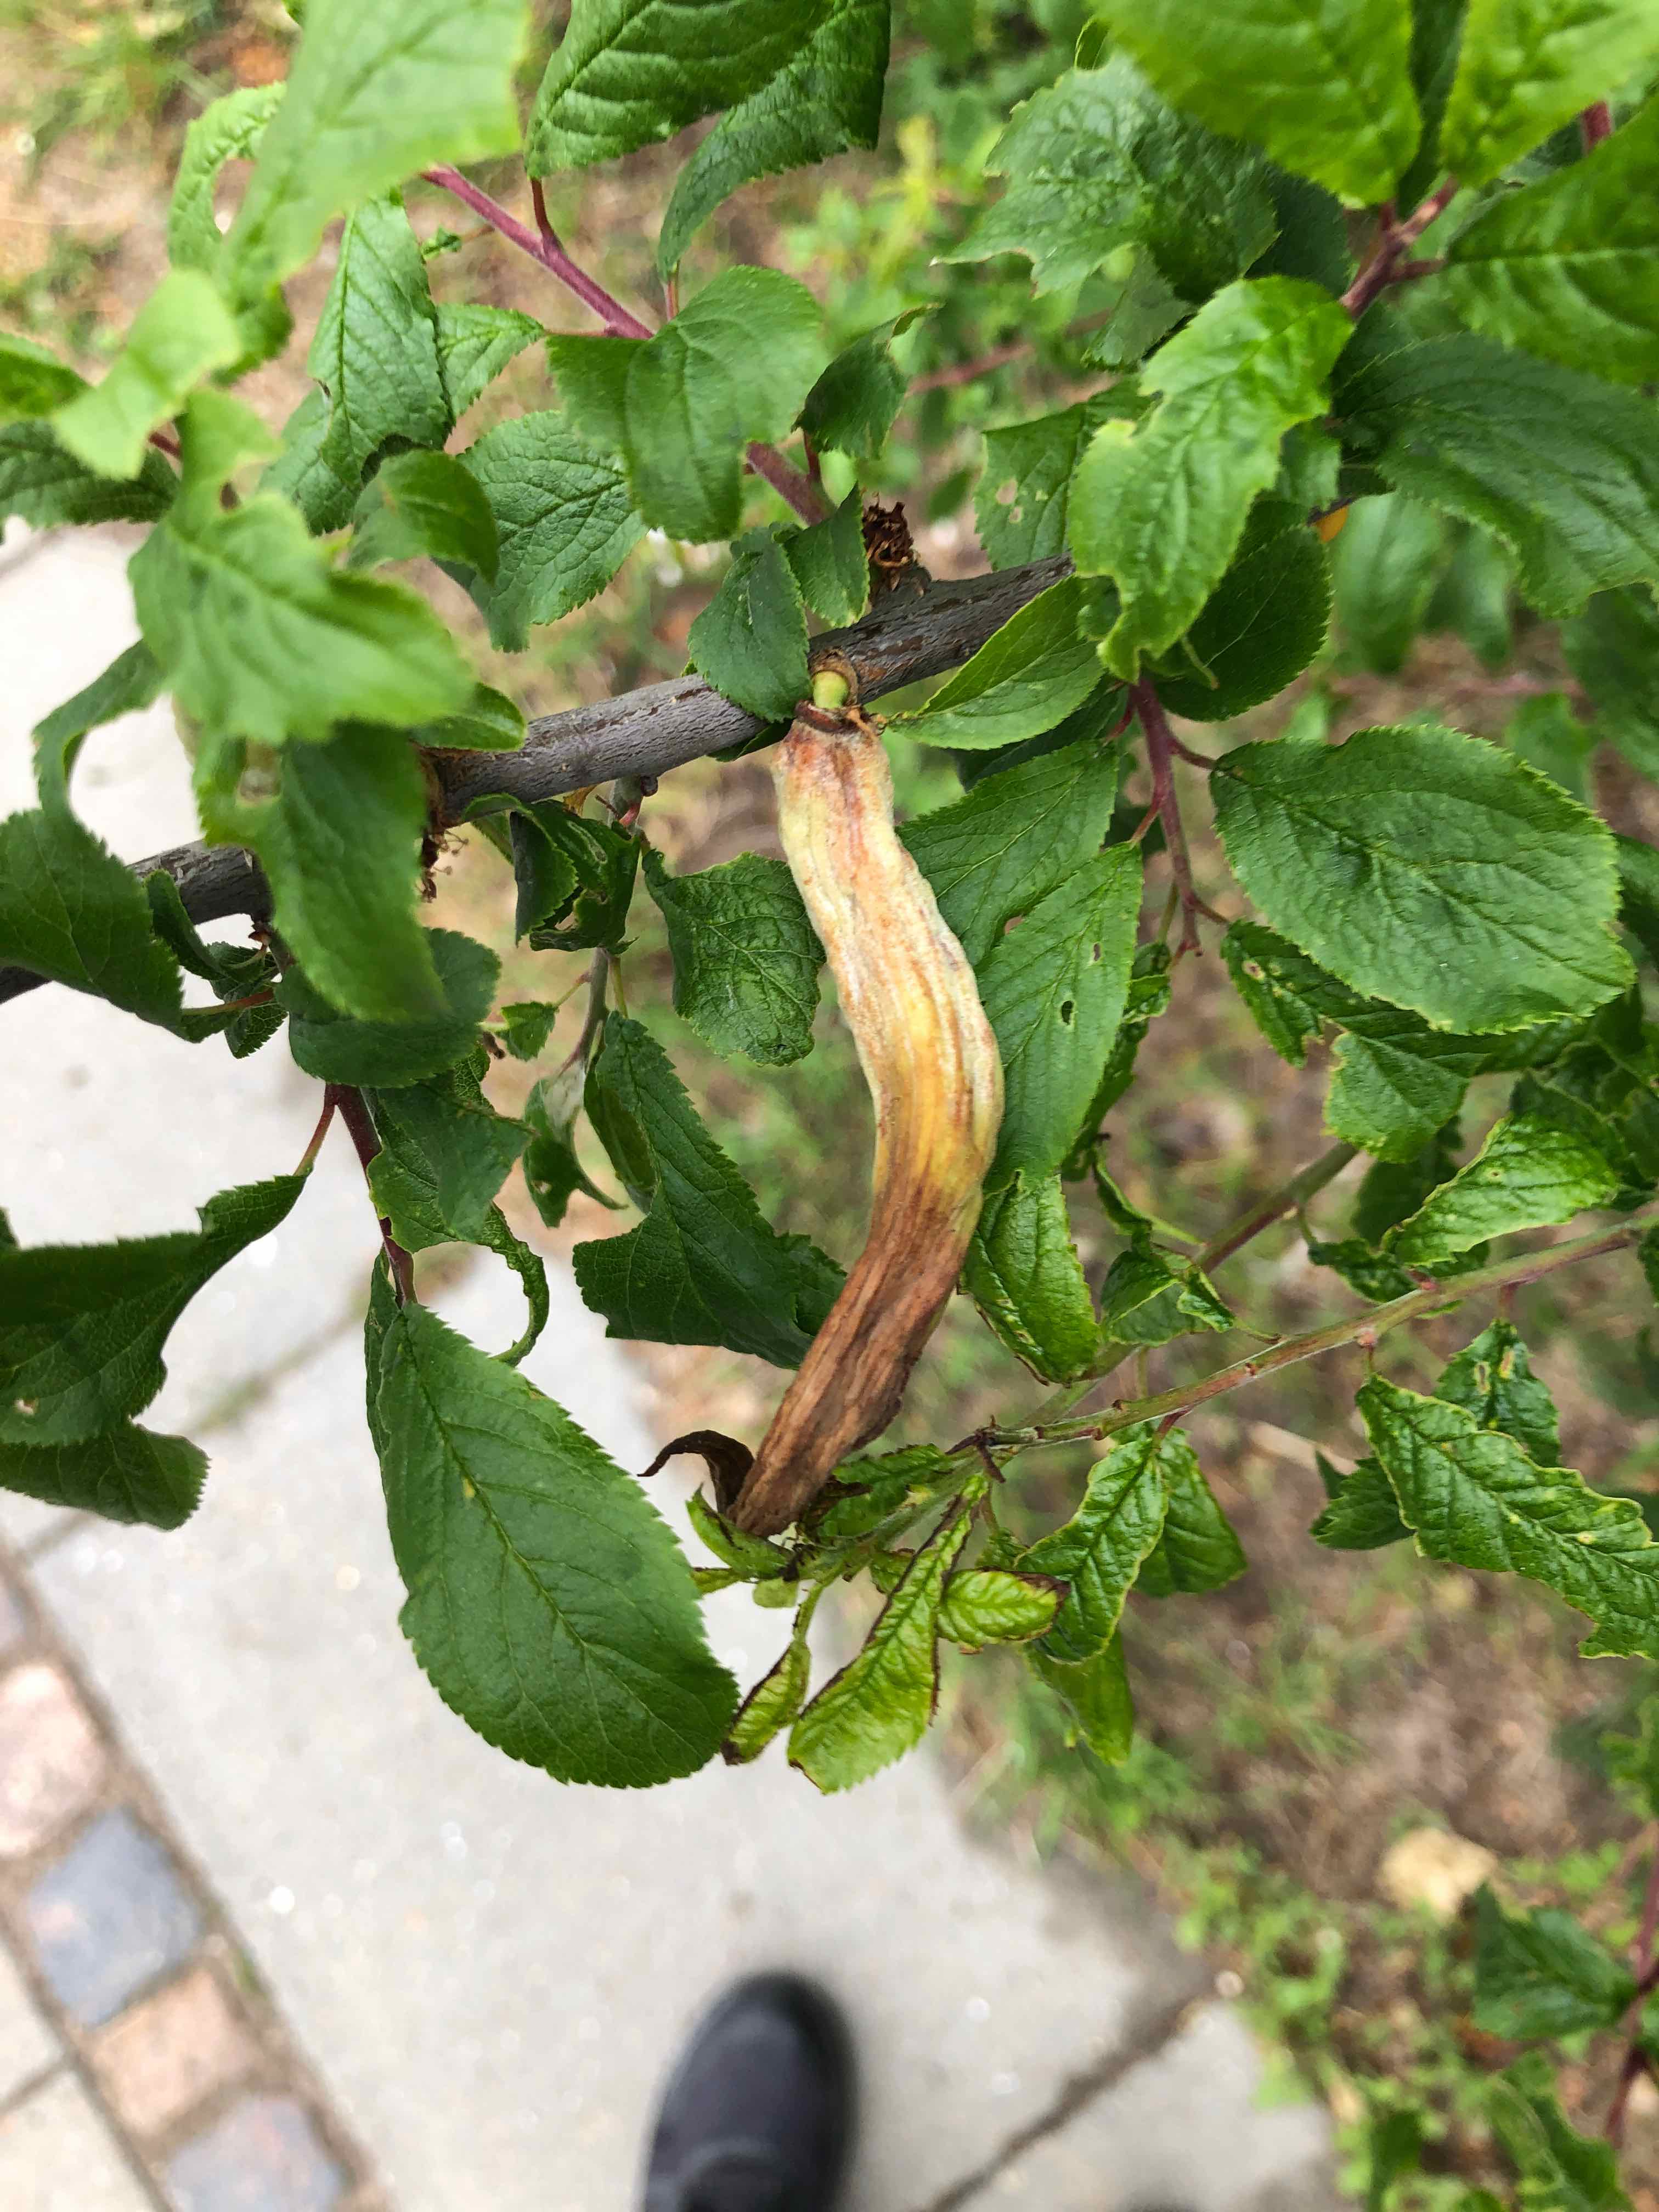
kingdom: Fungi
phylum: Ascomycota
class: Taphrinomycetes
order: Taphrinales
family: Taphrinaceae
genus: Taphrina
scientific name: Taphrina pruni
